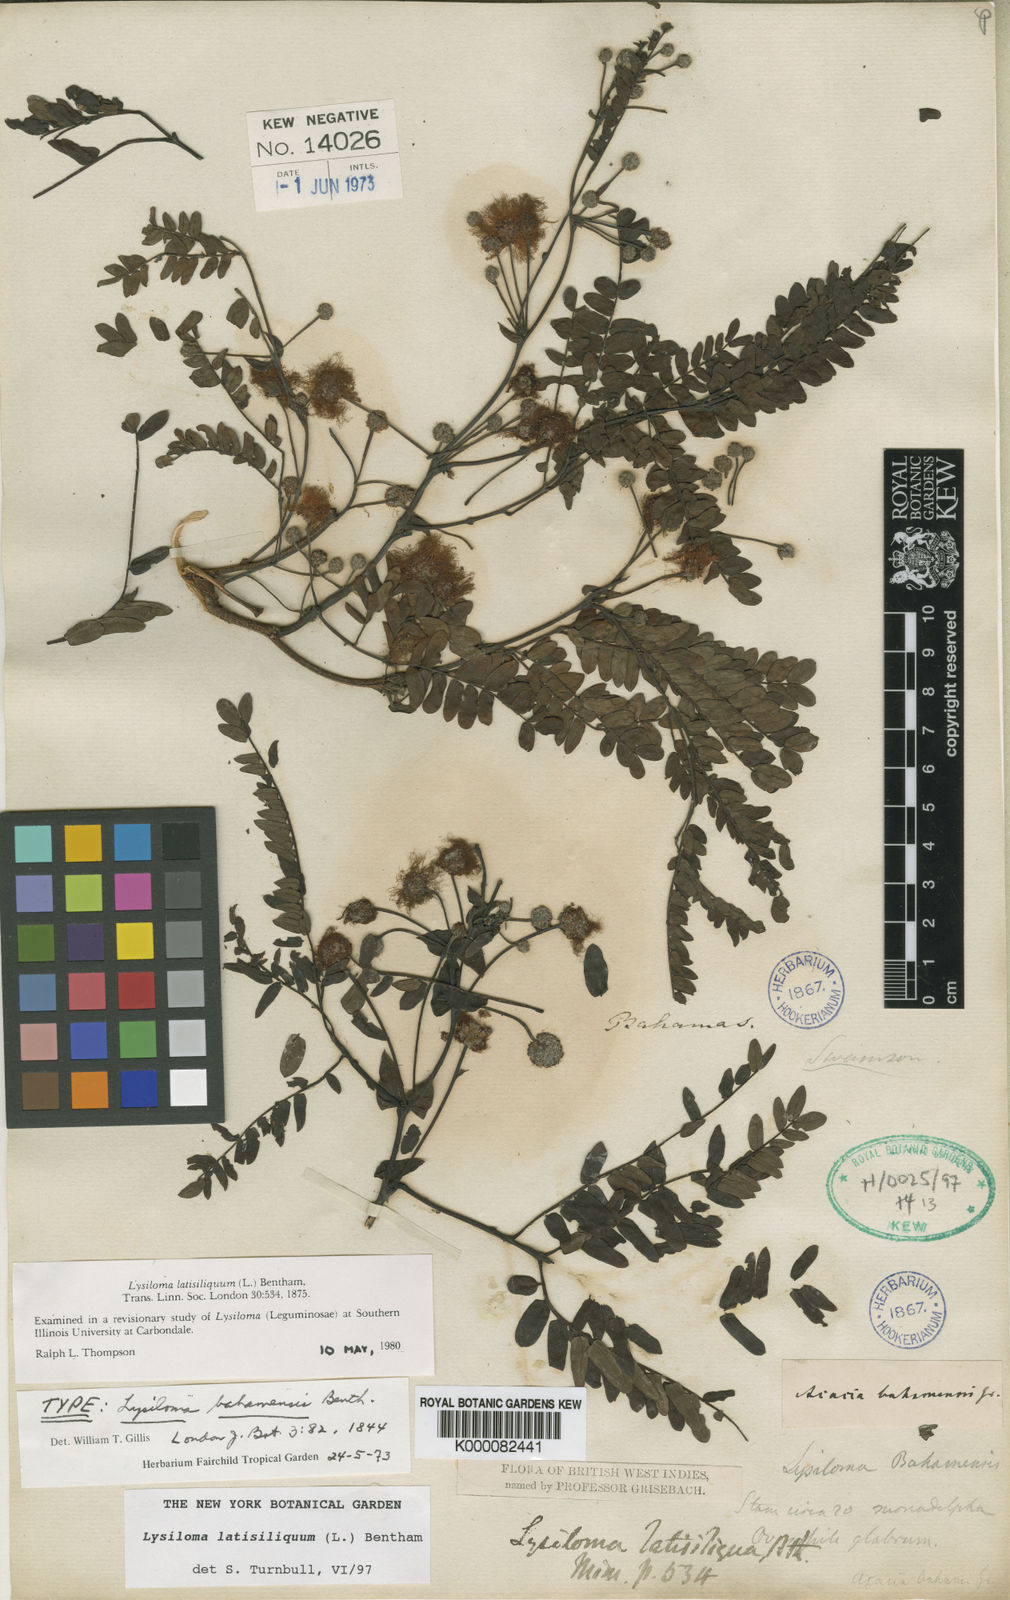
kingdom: Plantae
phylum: Tracheophyta
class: Magnoliopsida
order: Fabales
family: Fabaceae
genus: Lysiloma
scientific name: Lysiloma
